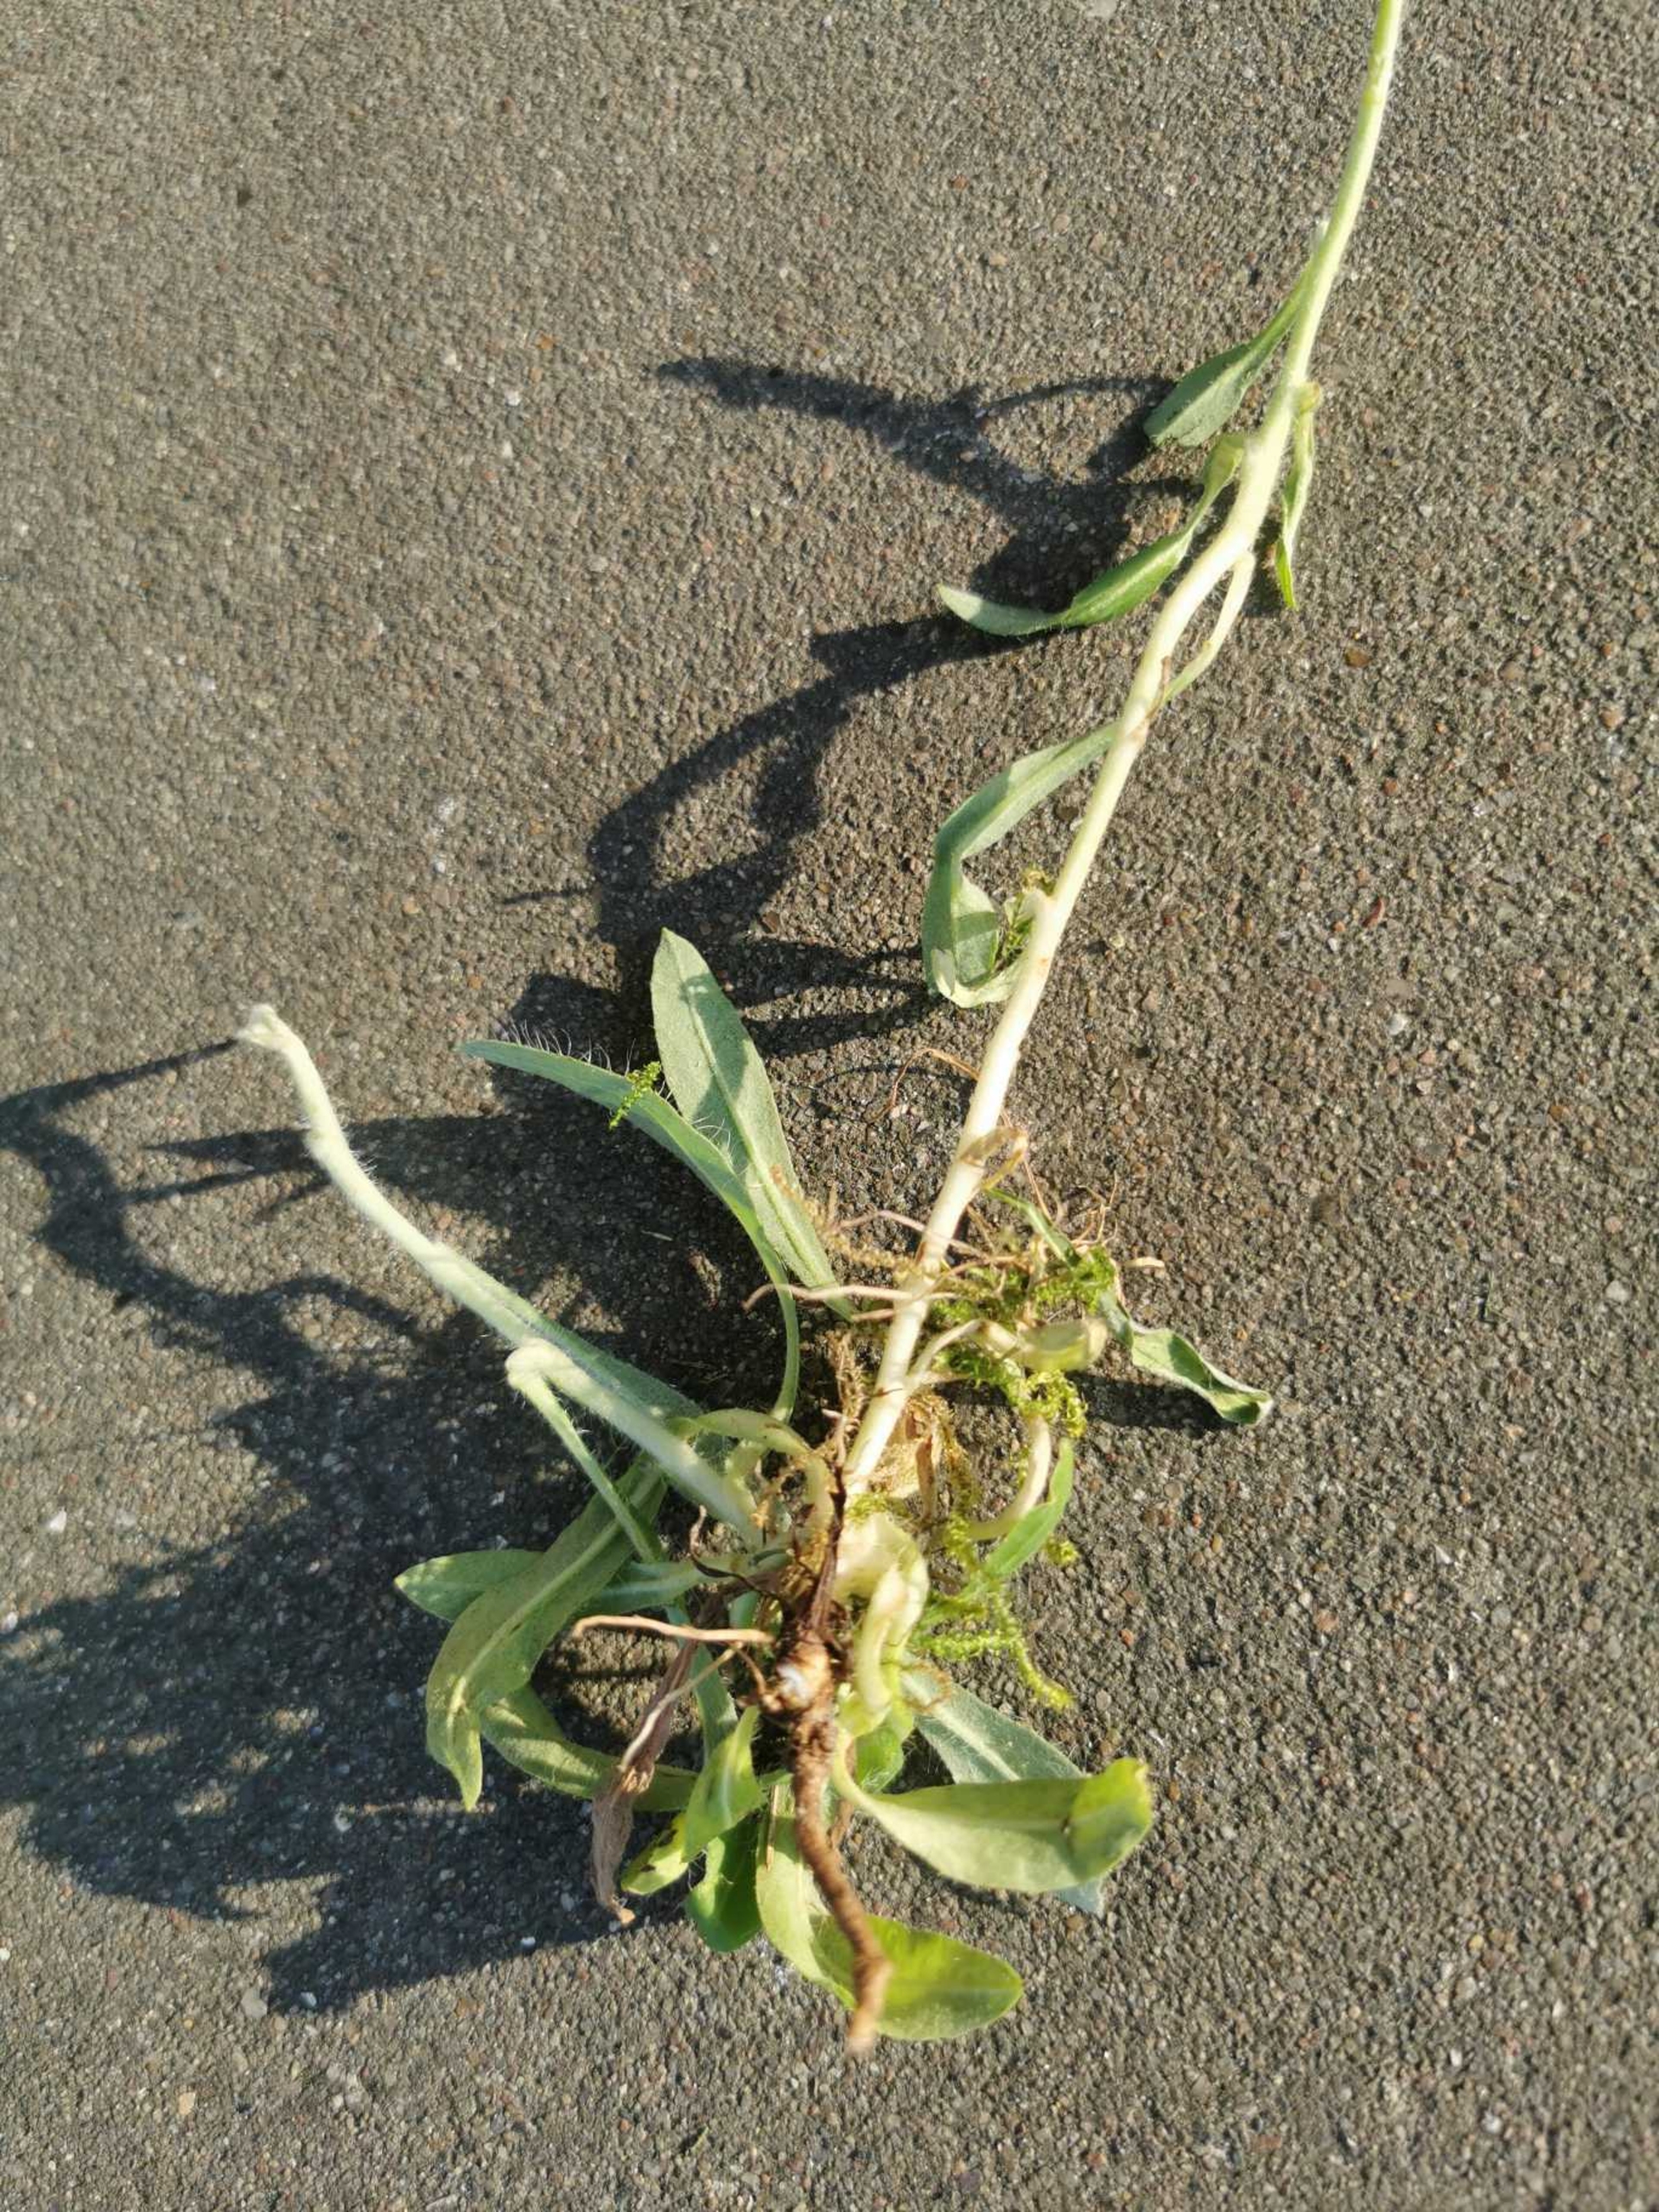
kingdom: Plantae
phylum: Tracheophyta
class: Magnoliopsida
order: Asterales
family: Asteraceae
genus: Pilosella
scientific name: Pilosella officinarum
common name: Håret høgeurt
